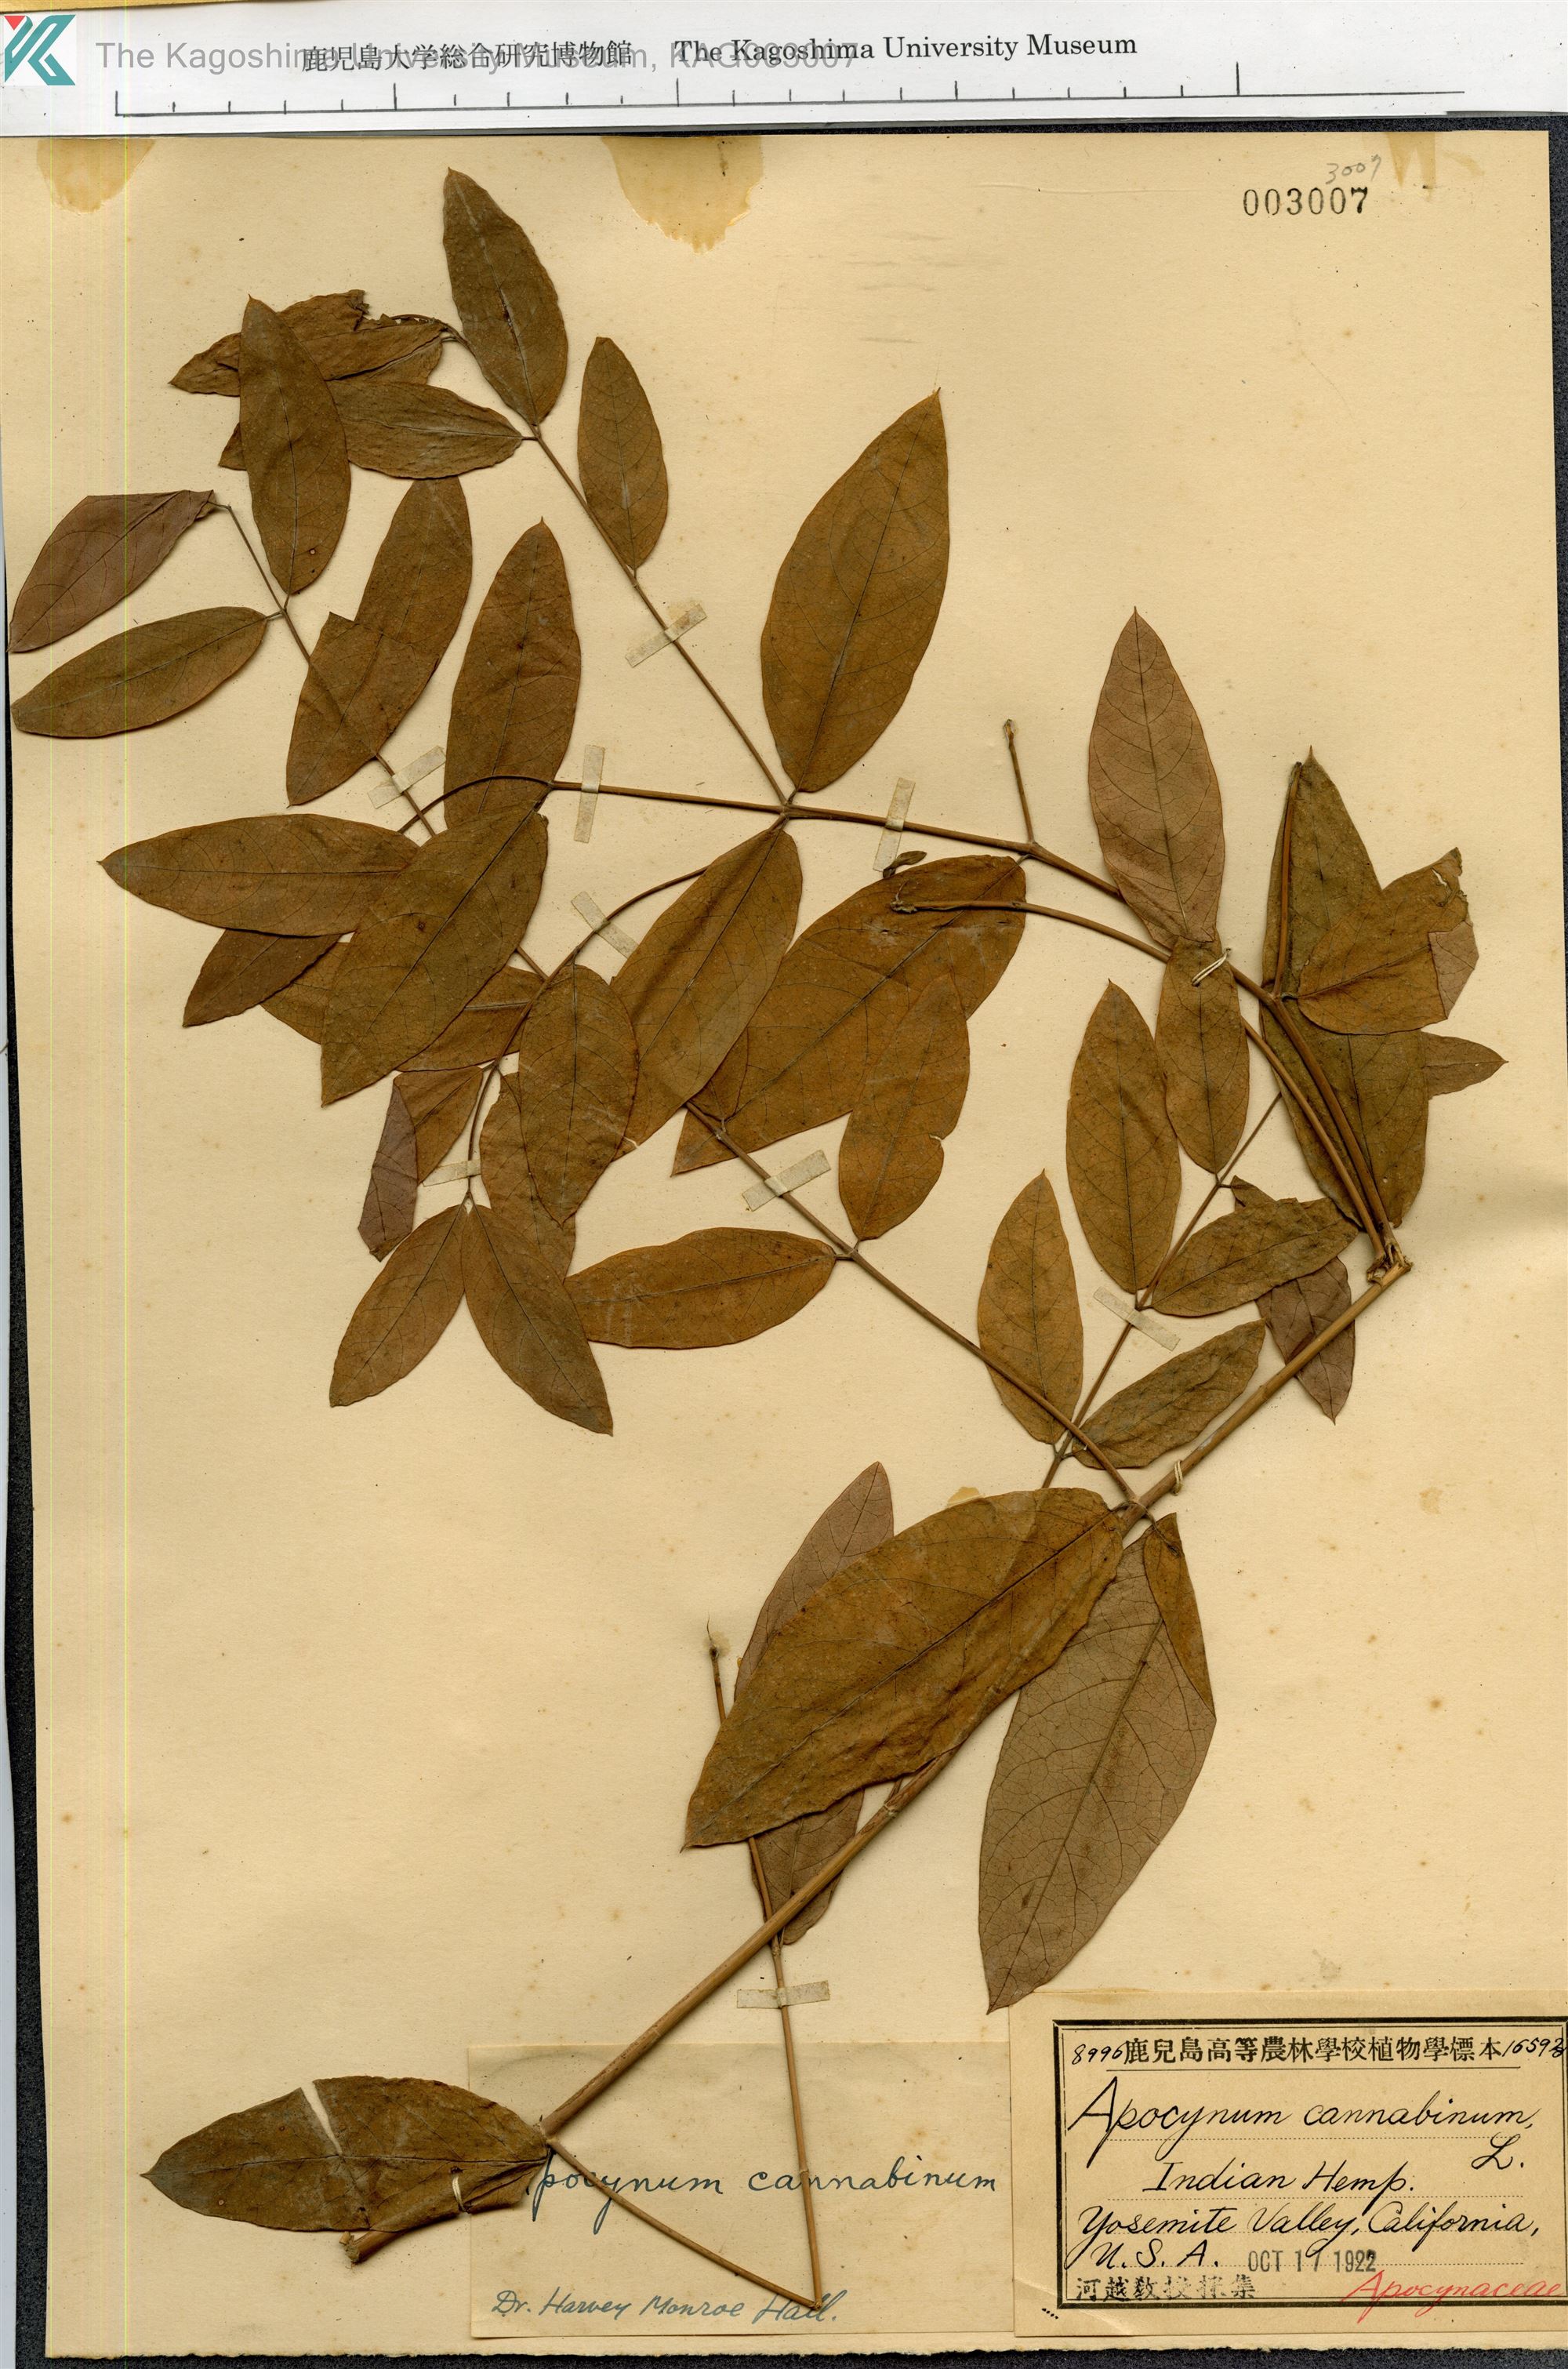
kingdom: Plantae
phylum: Tracheophyta
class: Magnoliopsida
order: Gentianales
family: Apocynaceae
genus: Apocynum
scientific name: Apocynum cannabinum
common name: Hemp dogbane
